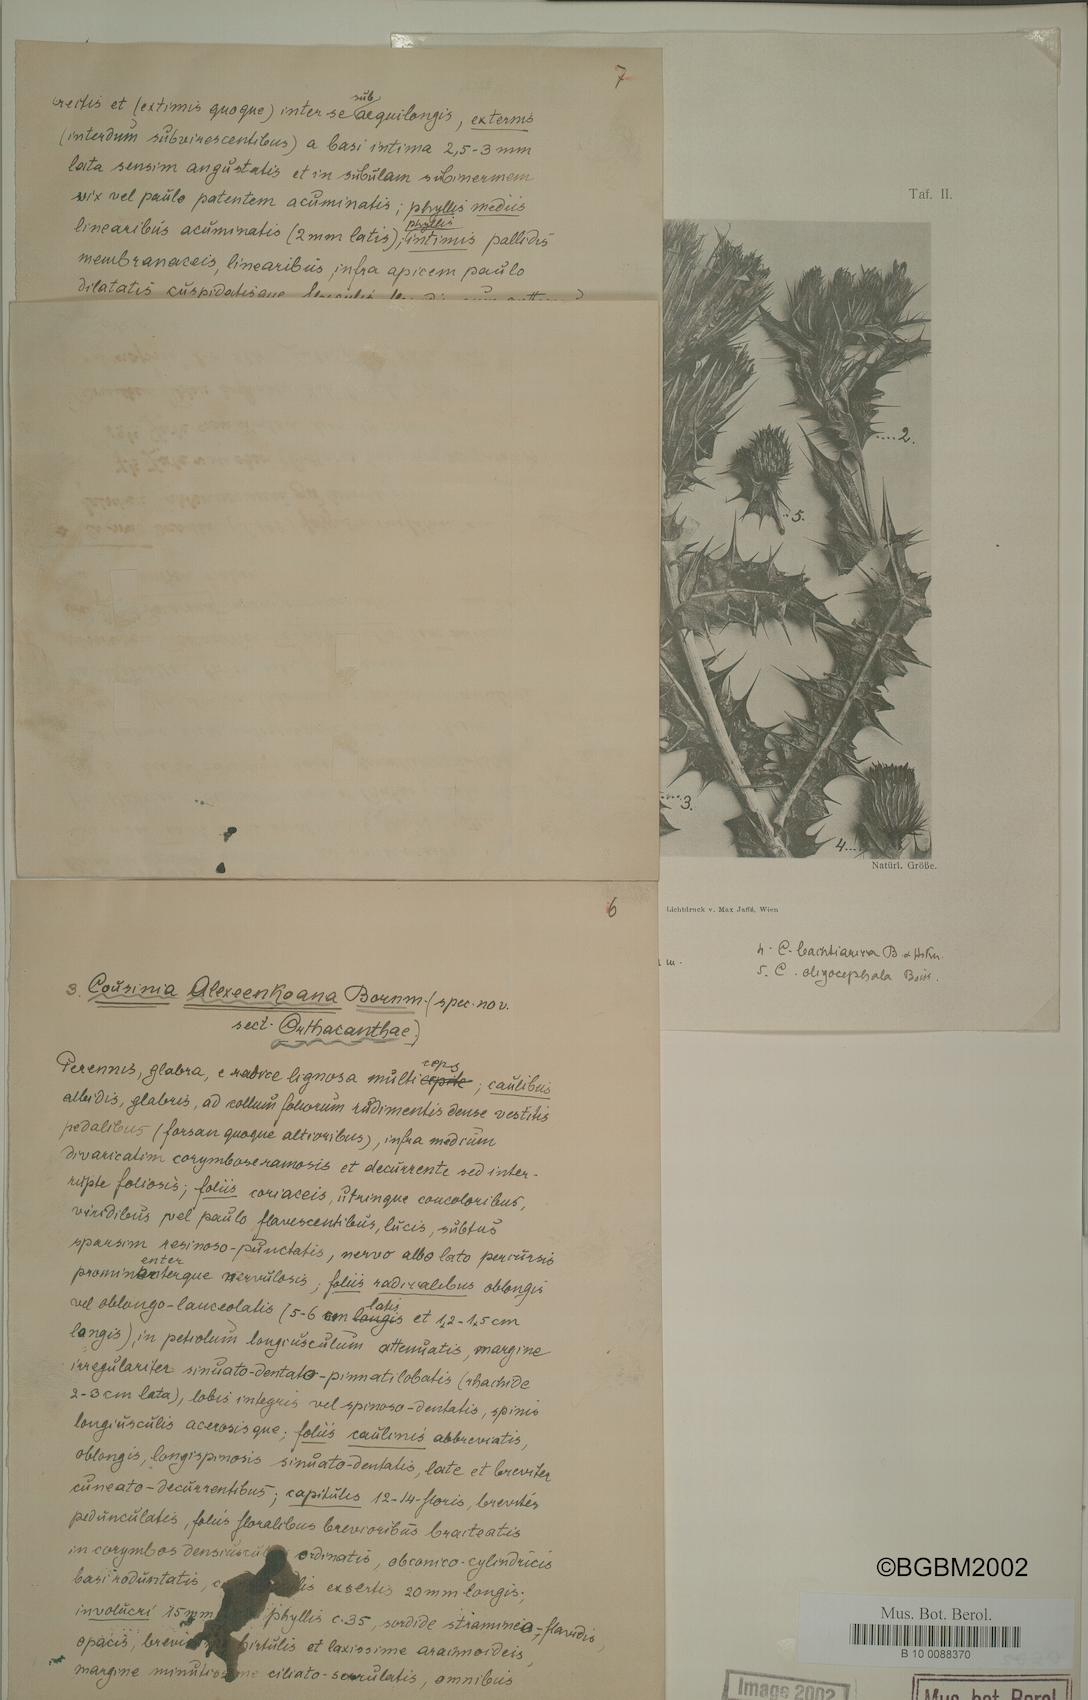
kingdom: Plantae
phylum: Tracheophyta
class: Magnoliopsida
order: Asterales
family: Asteraceae
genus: Cousinia
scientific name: Cousinia alexeenkoana
